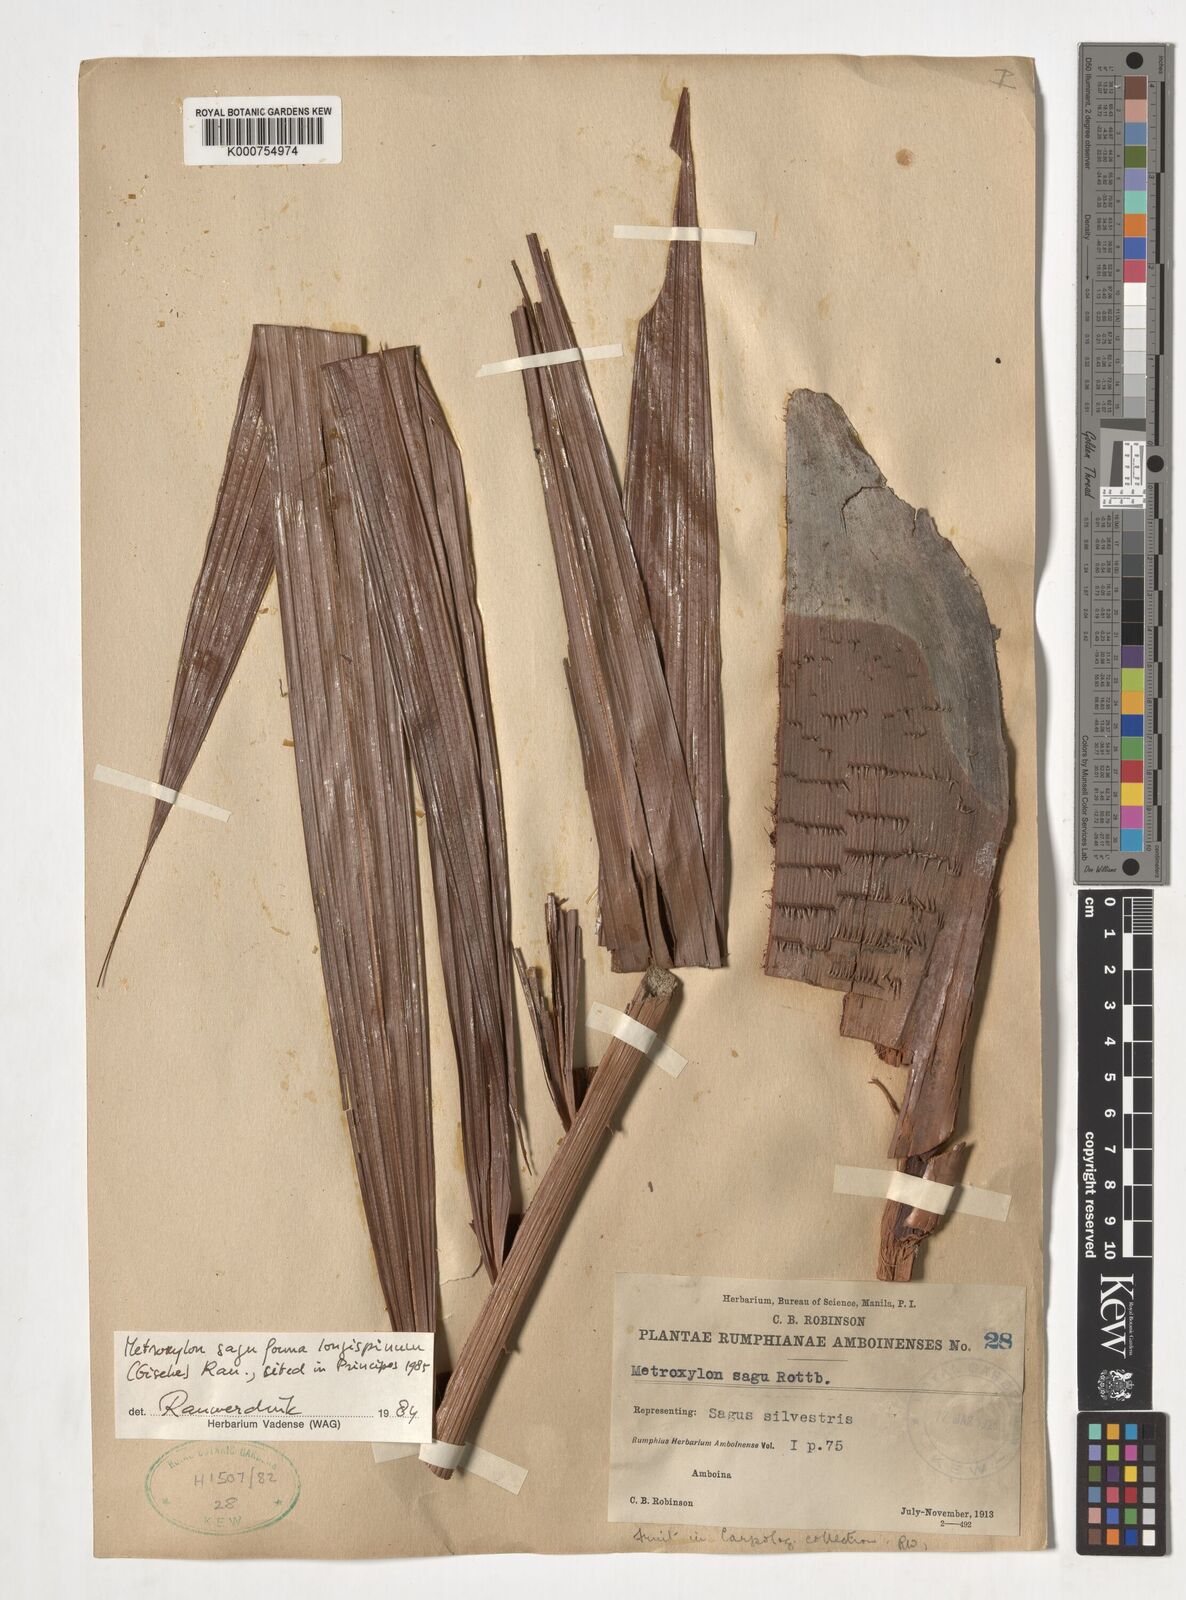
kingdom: Plantae
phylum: Tracheophyta
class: Liliopsida
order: Arecales
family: Arecaceae
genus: Metroxylon
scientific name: Metroxylon sagu
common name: Sago palm
